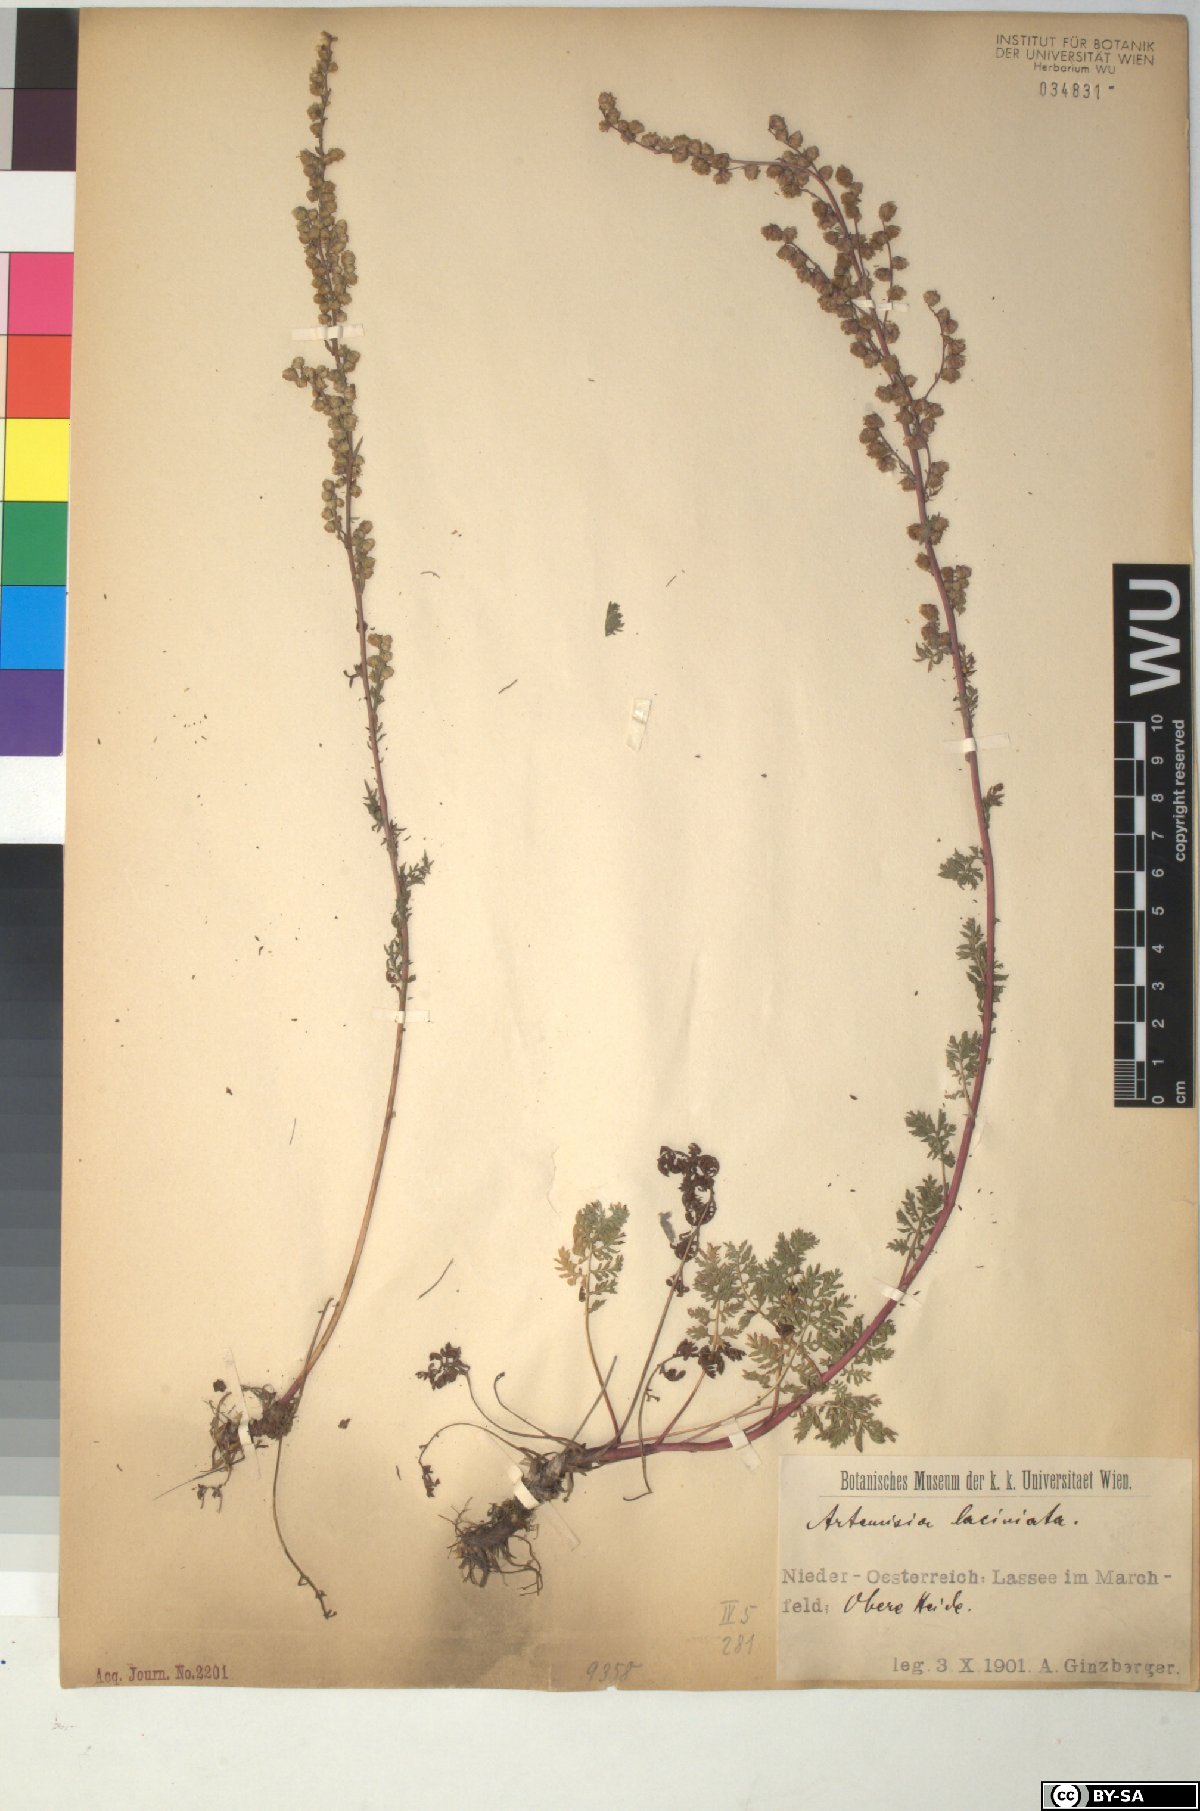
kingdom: Plantae
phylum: Tracheophyta
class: Magnoliopsida
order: Asterales
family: Asteraceae
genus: Artemisia
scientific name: Artemisia laciniata
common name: Siberian wormwood
